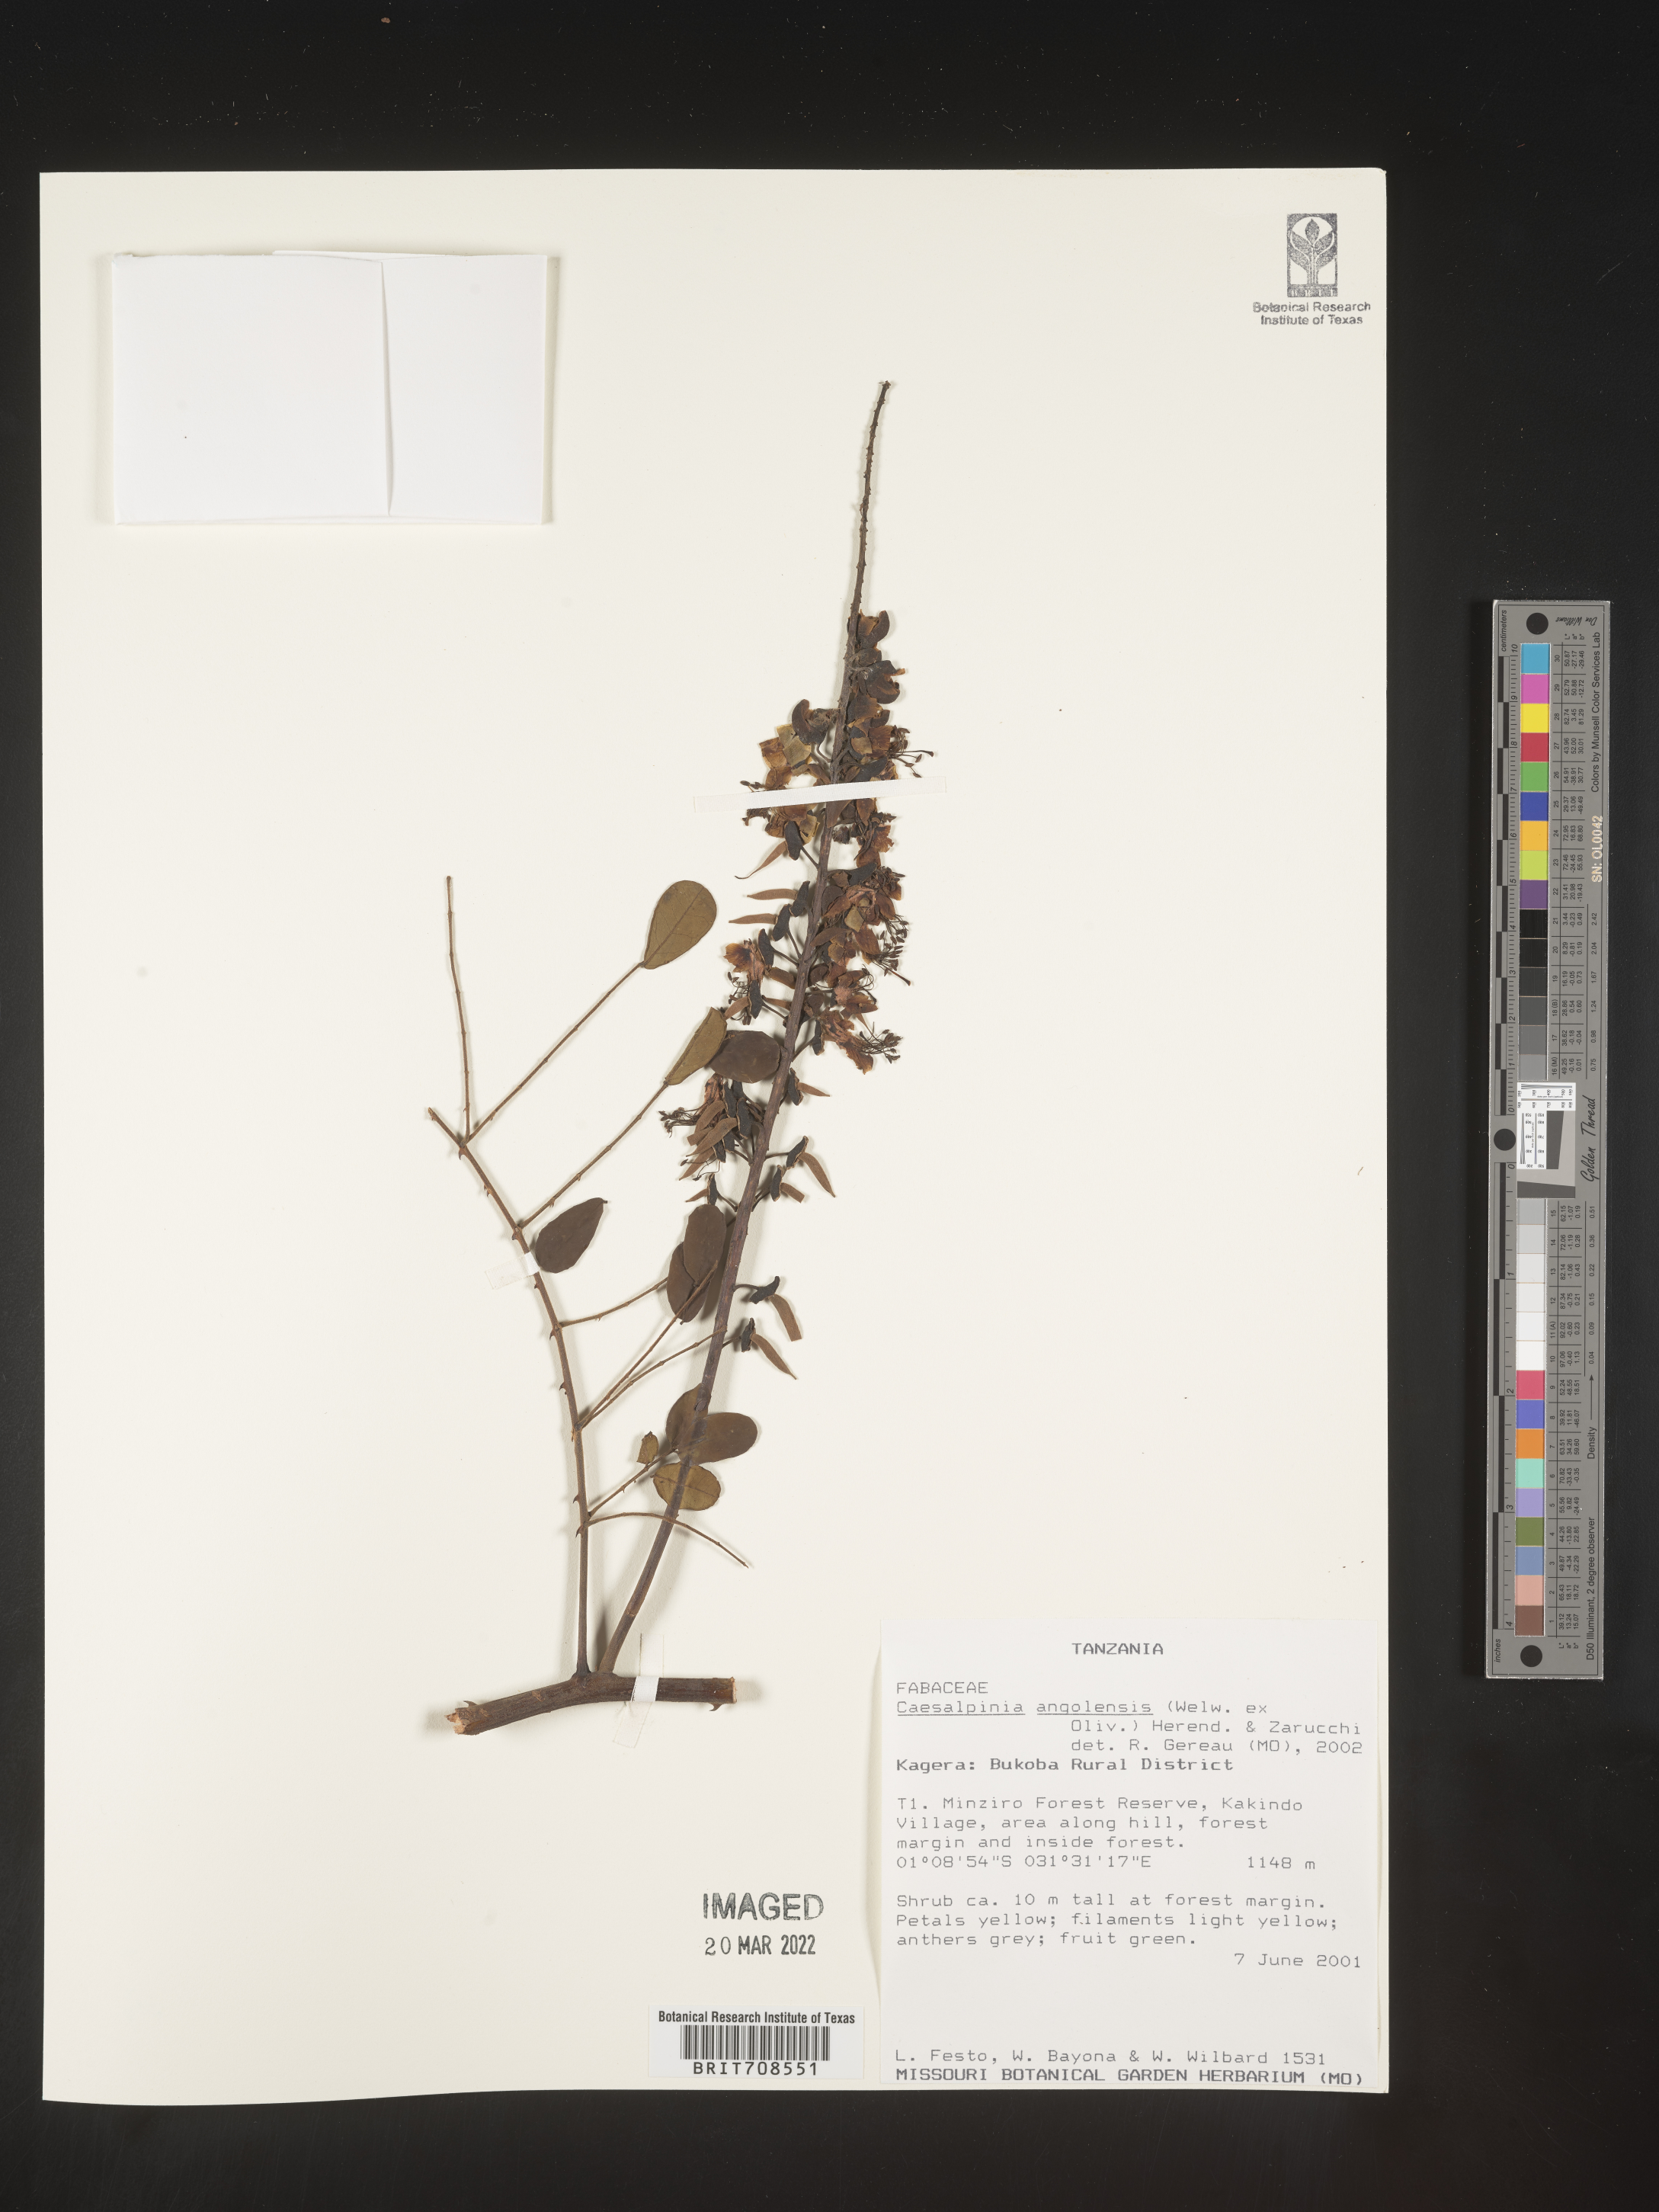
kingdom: Plantae
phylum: Tracheophyta
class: Magnoliopsida
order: Fabales
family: Fabaceae
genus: Caesalpinia
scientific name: Caesalpinia
